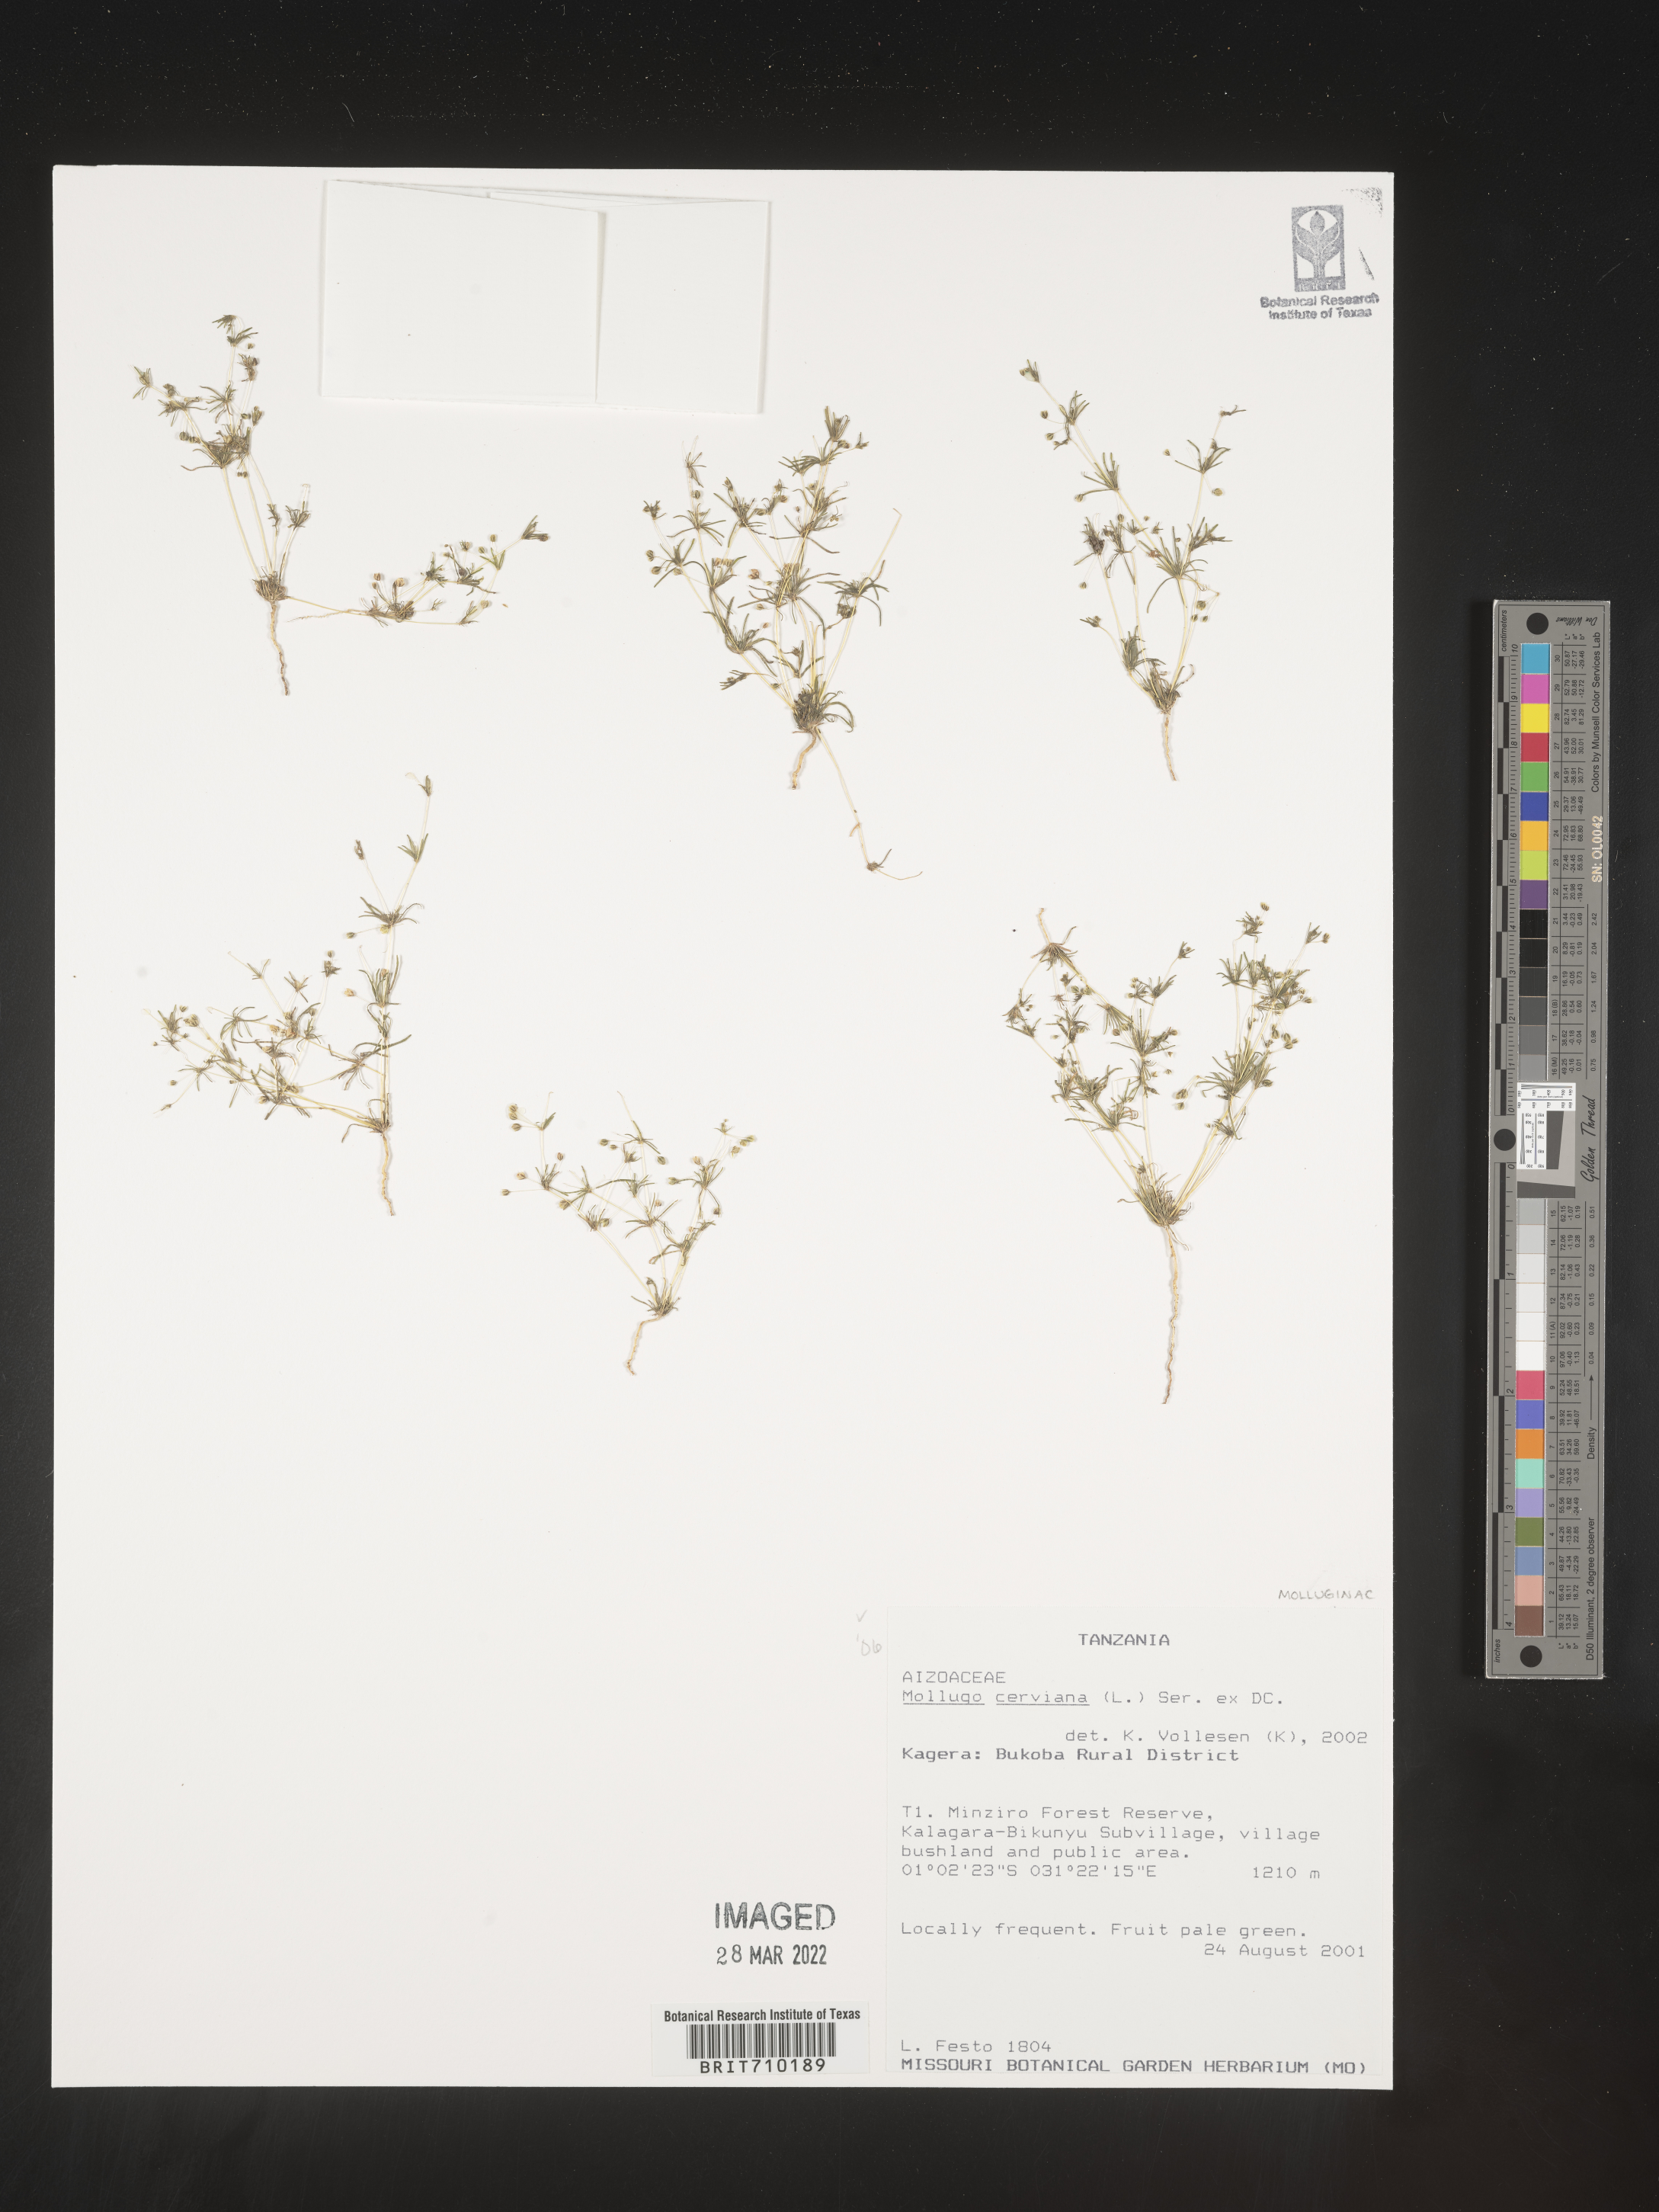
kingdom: Plantae
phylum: Tracheophyta
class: Magnoliopsida
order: Caryophyllales
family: Molluginaceae
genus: Mollugo
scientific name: Mollugo
